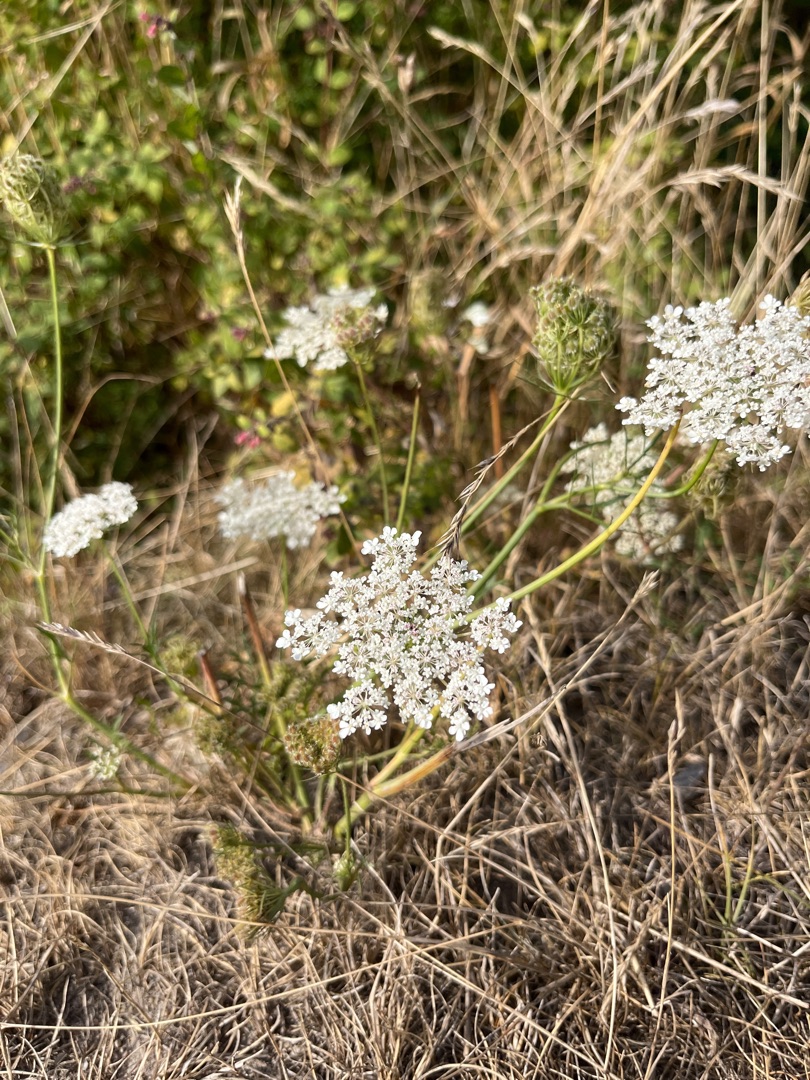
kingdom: Plantae
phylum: Tracheophyta
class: Magnoliopsida
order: Apiales
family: Apiaceae
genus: Daucus
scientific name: Daucus carota
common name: Gulerod
